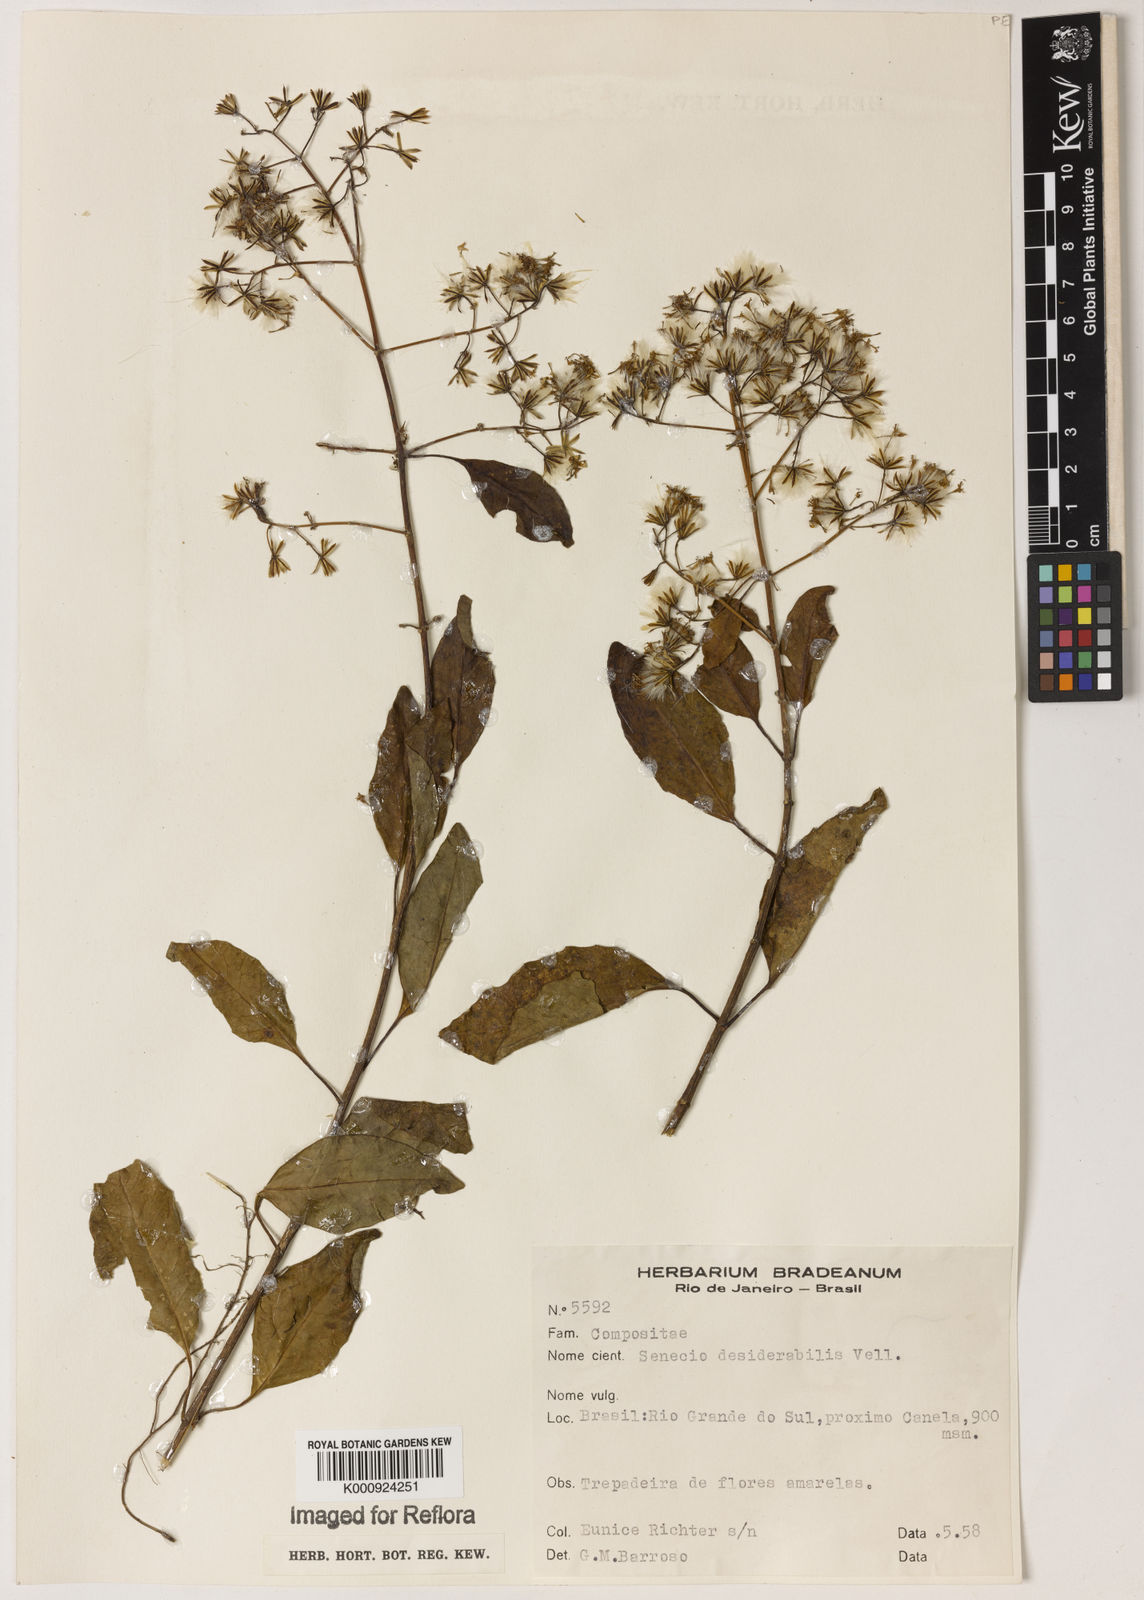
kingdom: Plantae
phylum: Tracheophyta
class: Magnoliopsida
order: Asterales
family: Asteraceae
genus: Pentacalia
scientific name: Pentacalia desiderabilis
